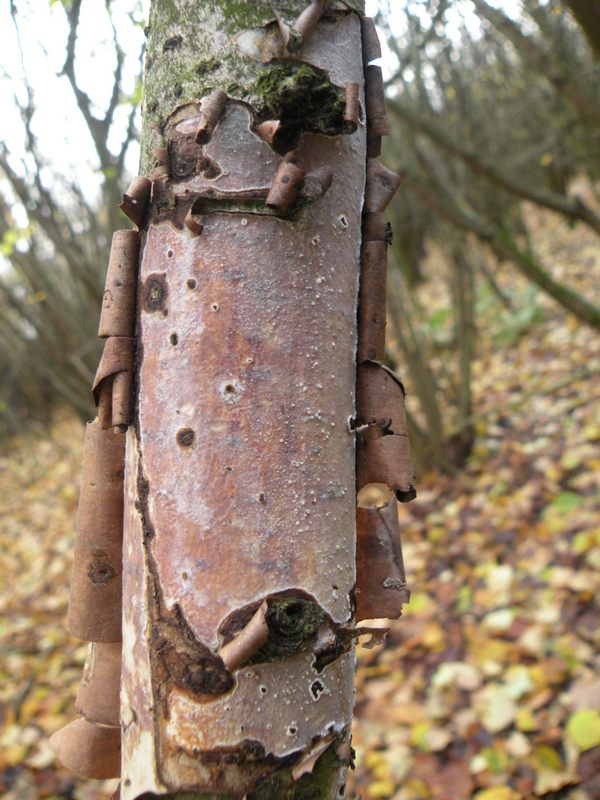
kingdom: Fungi
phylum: Basidiomycota
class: Agaricomycetes
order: Corticiales
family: Vuilleminiaceae
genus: Vuilleminia
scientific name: Vuilleminia coryli
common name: hassel-barksprænger
